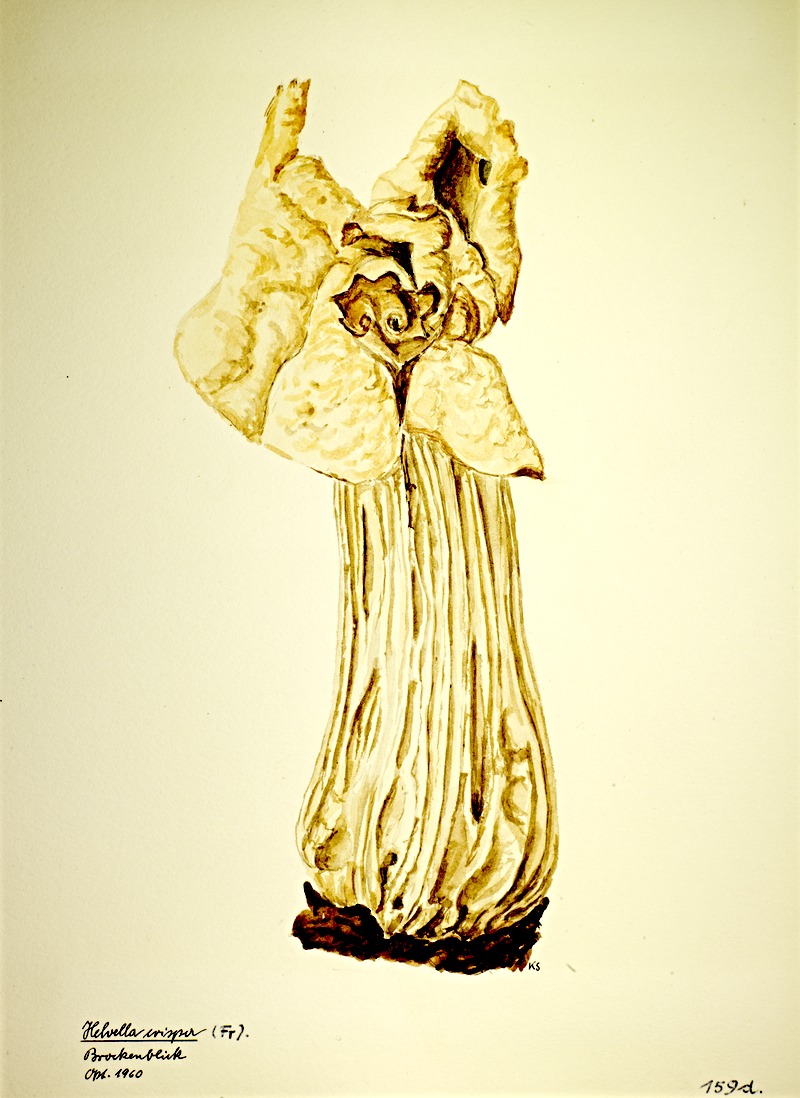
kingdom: Fungi
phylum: Ascomycota
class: Pezizomycetes
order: Pezizales
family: Helvellaceae
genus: Helvella
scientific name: Helvella crispa
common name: White saddle
